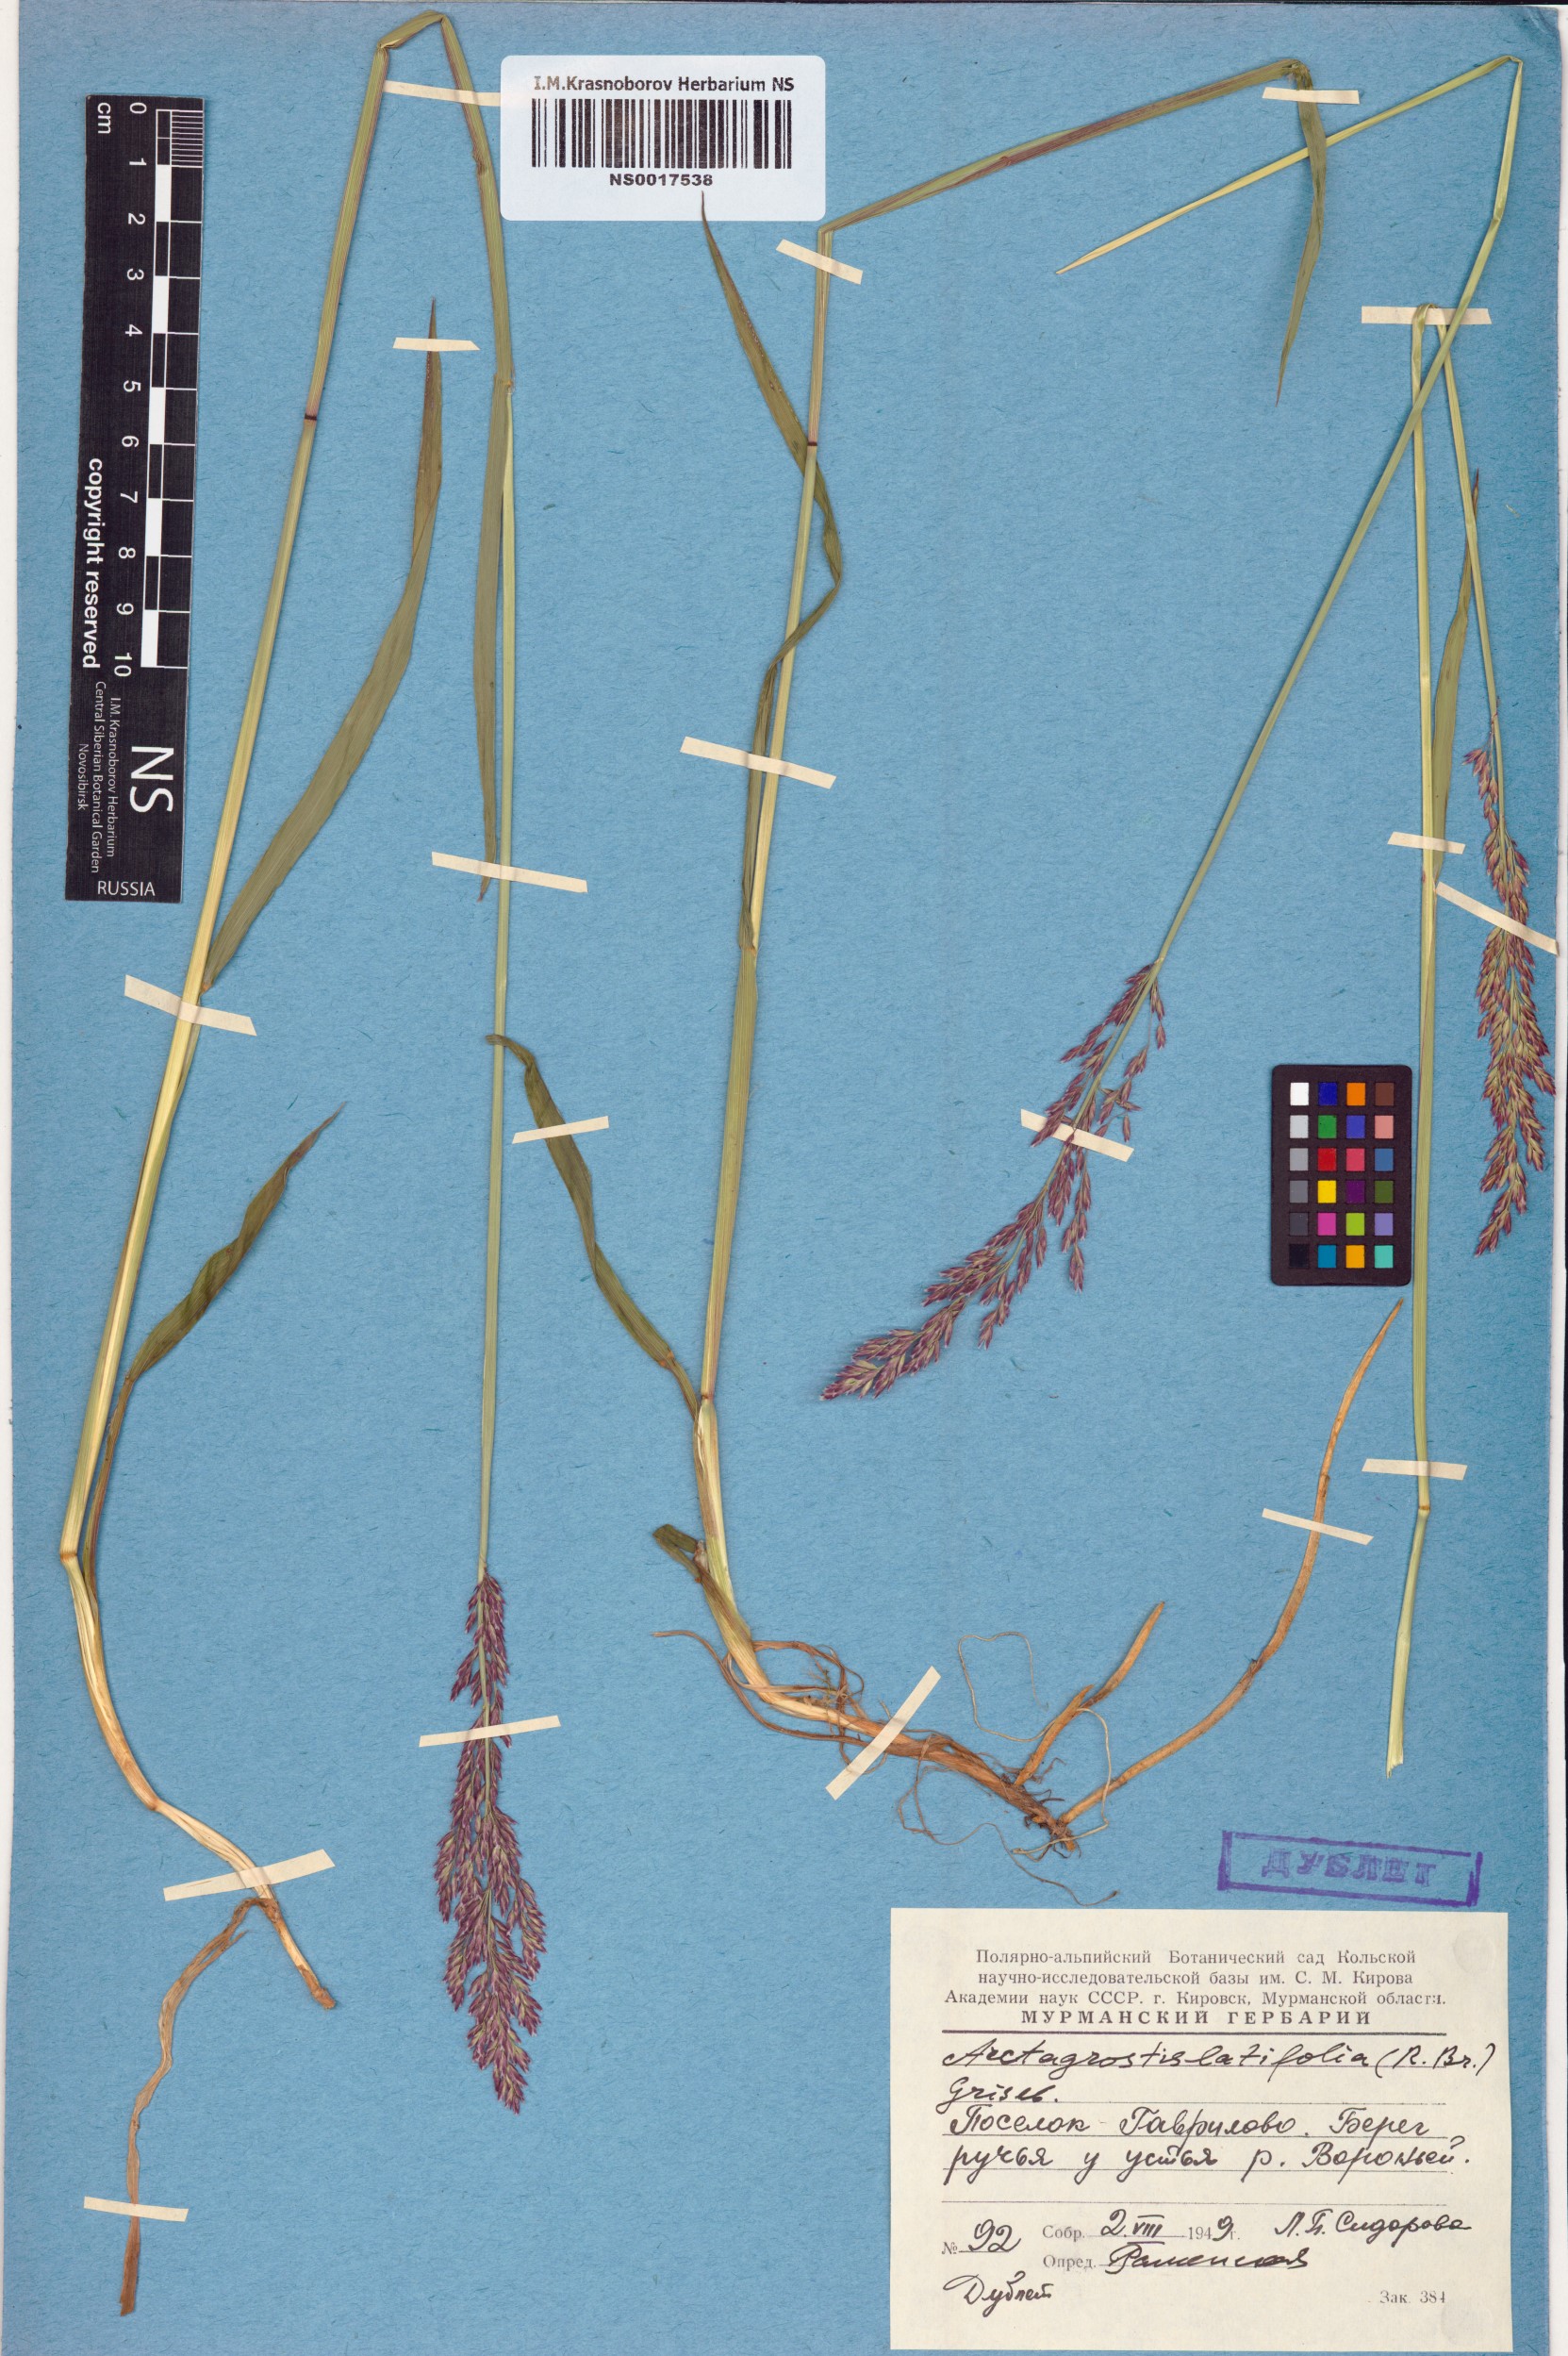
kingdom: Plantae
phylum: Tracheophyta
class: Liliopsida
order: Poales
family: Poaceae
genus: Arctagrostis
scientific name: Arctagrostis latifolia
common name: Arctic grass
